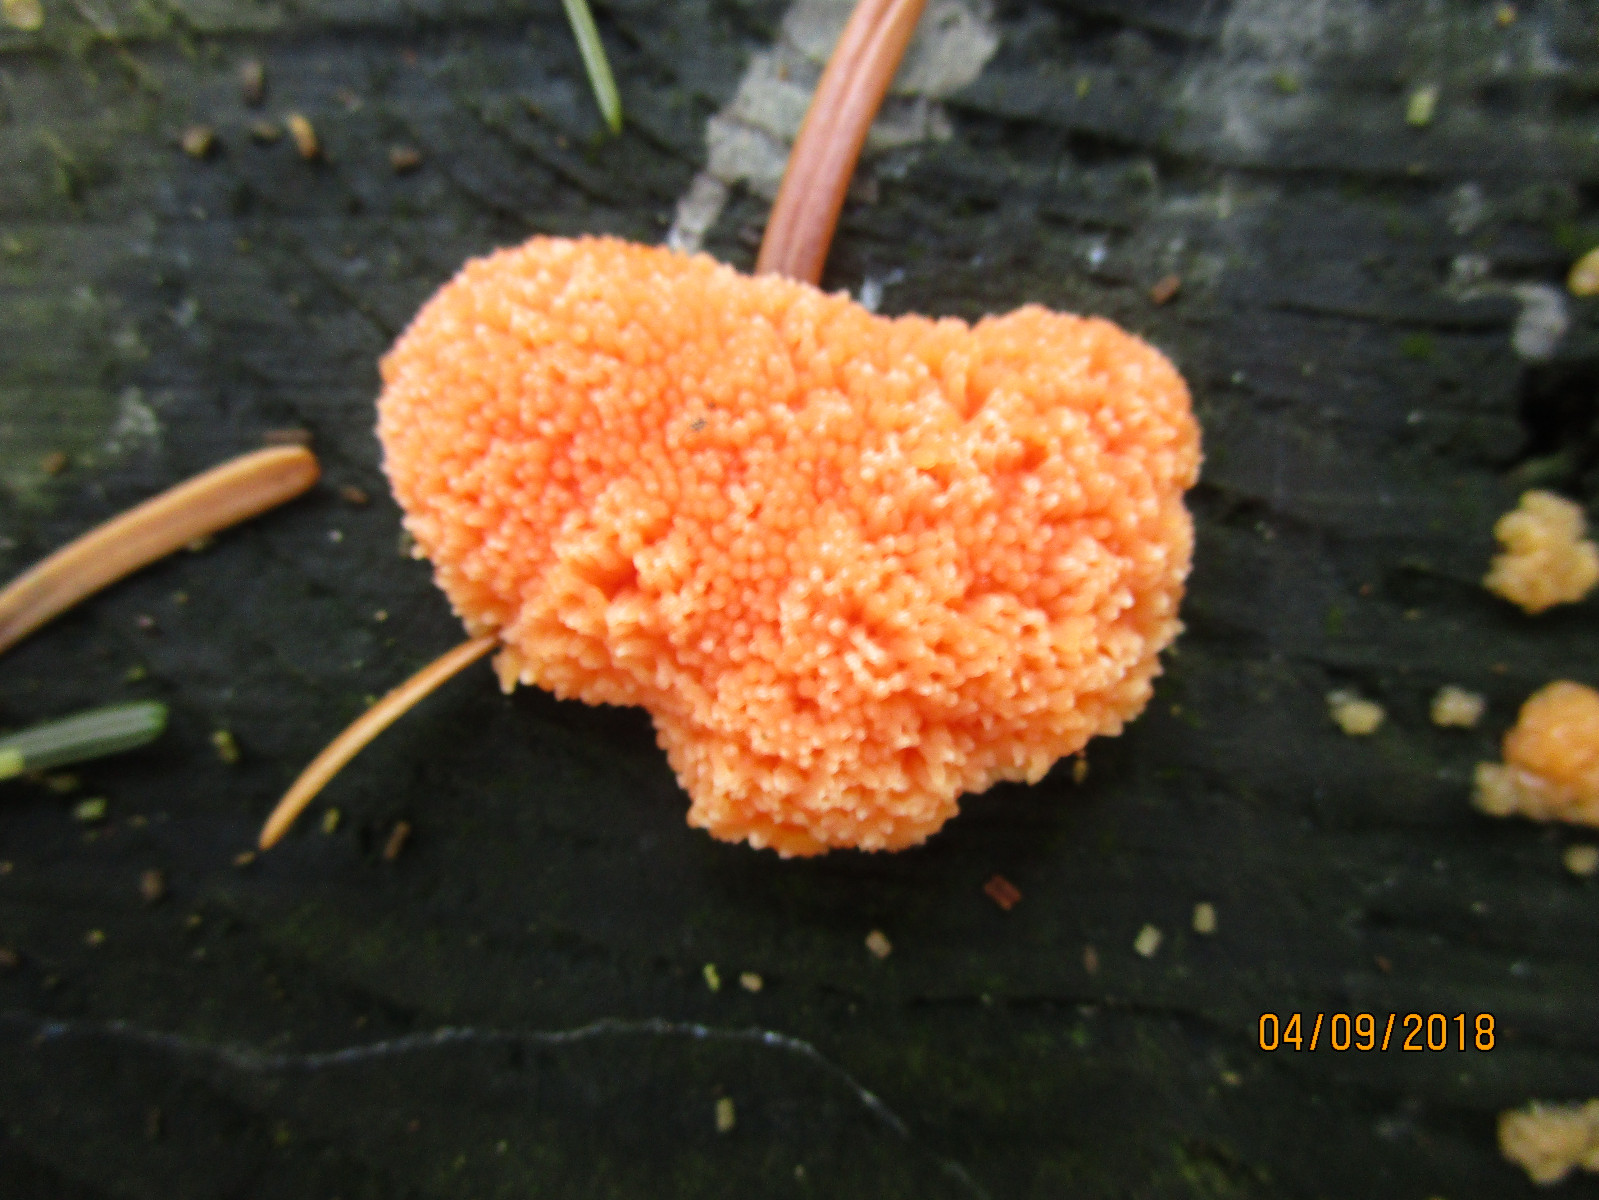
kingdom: Protozoa
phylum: Mycetozoa
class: Myxomycetes
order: Cribrariales
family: Tubiferaceae
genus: Tubifera
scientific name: Tubifera ferruginosa
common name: kanel-støvrør
